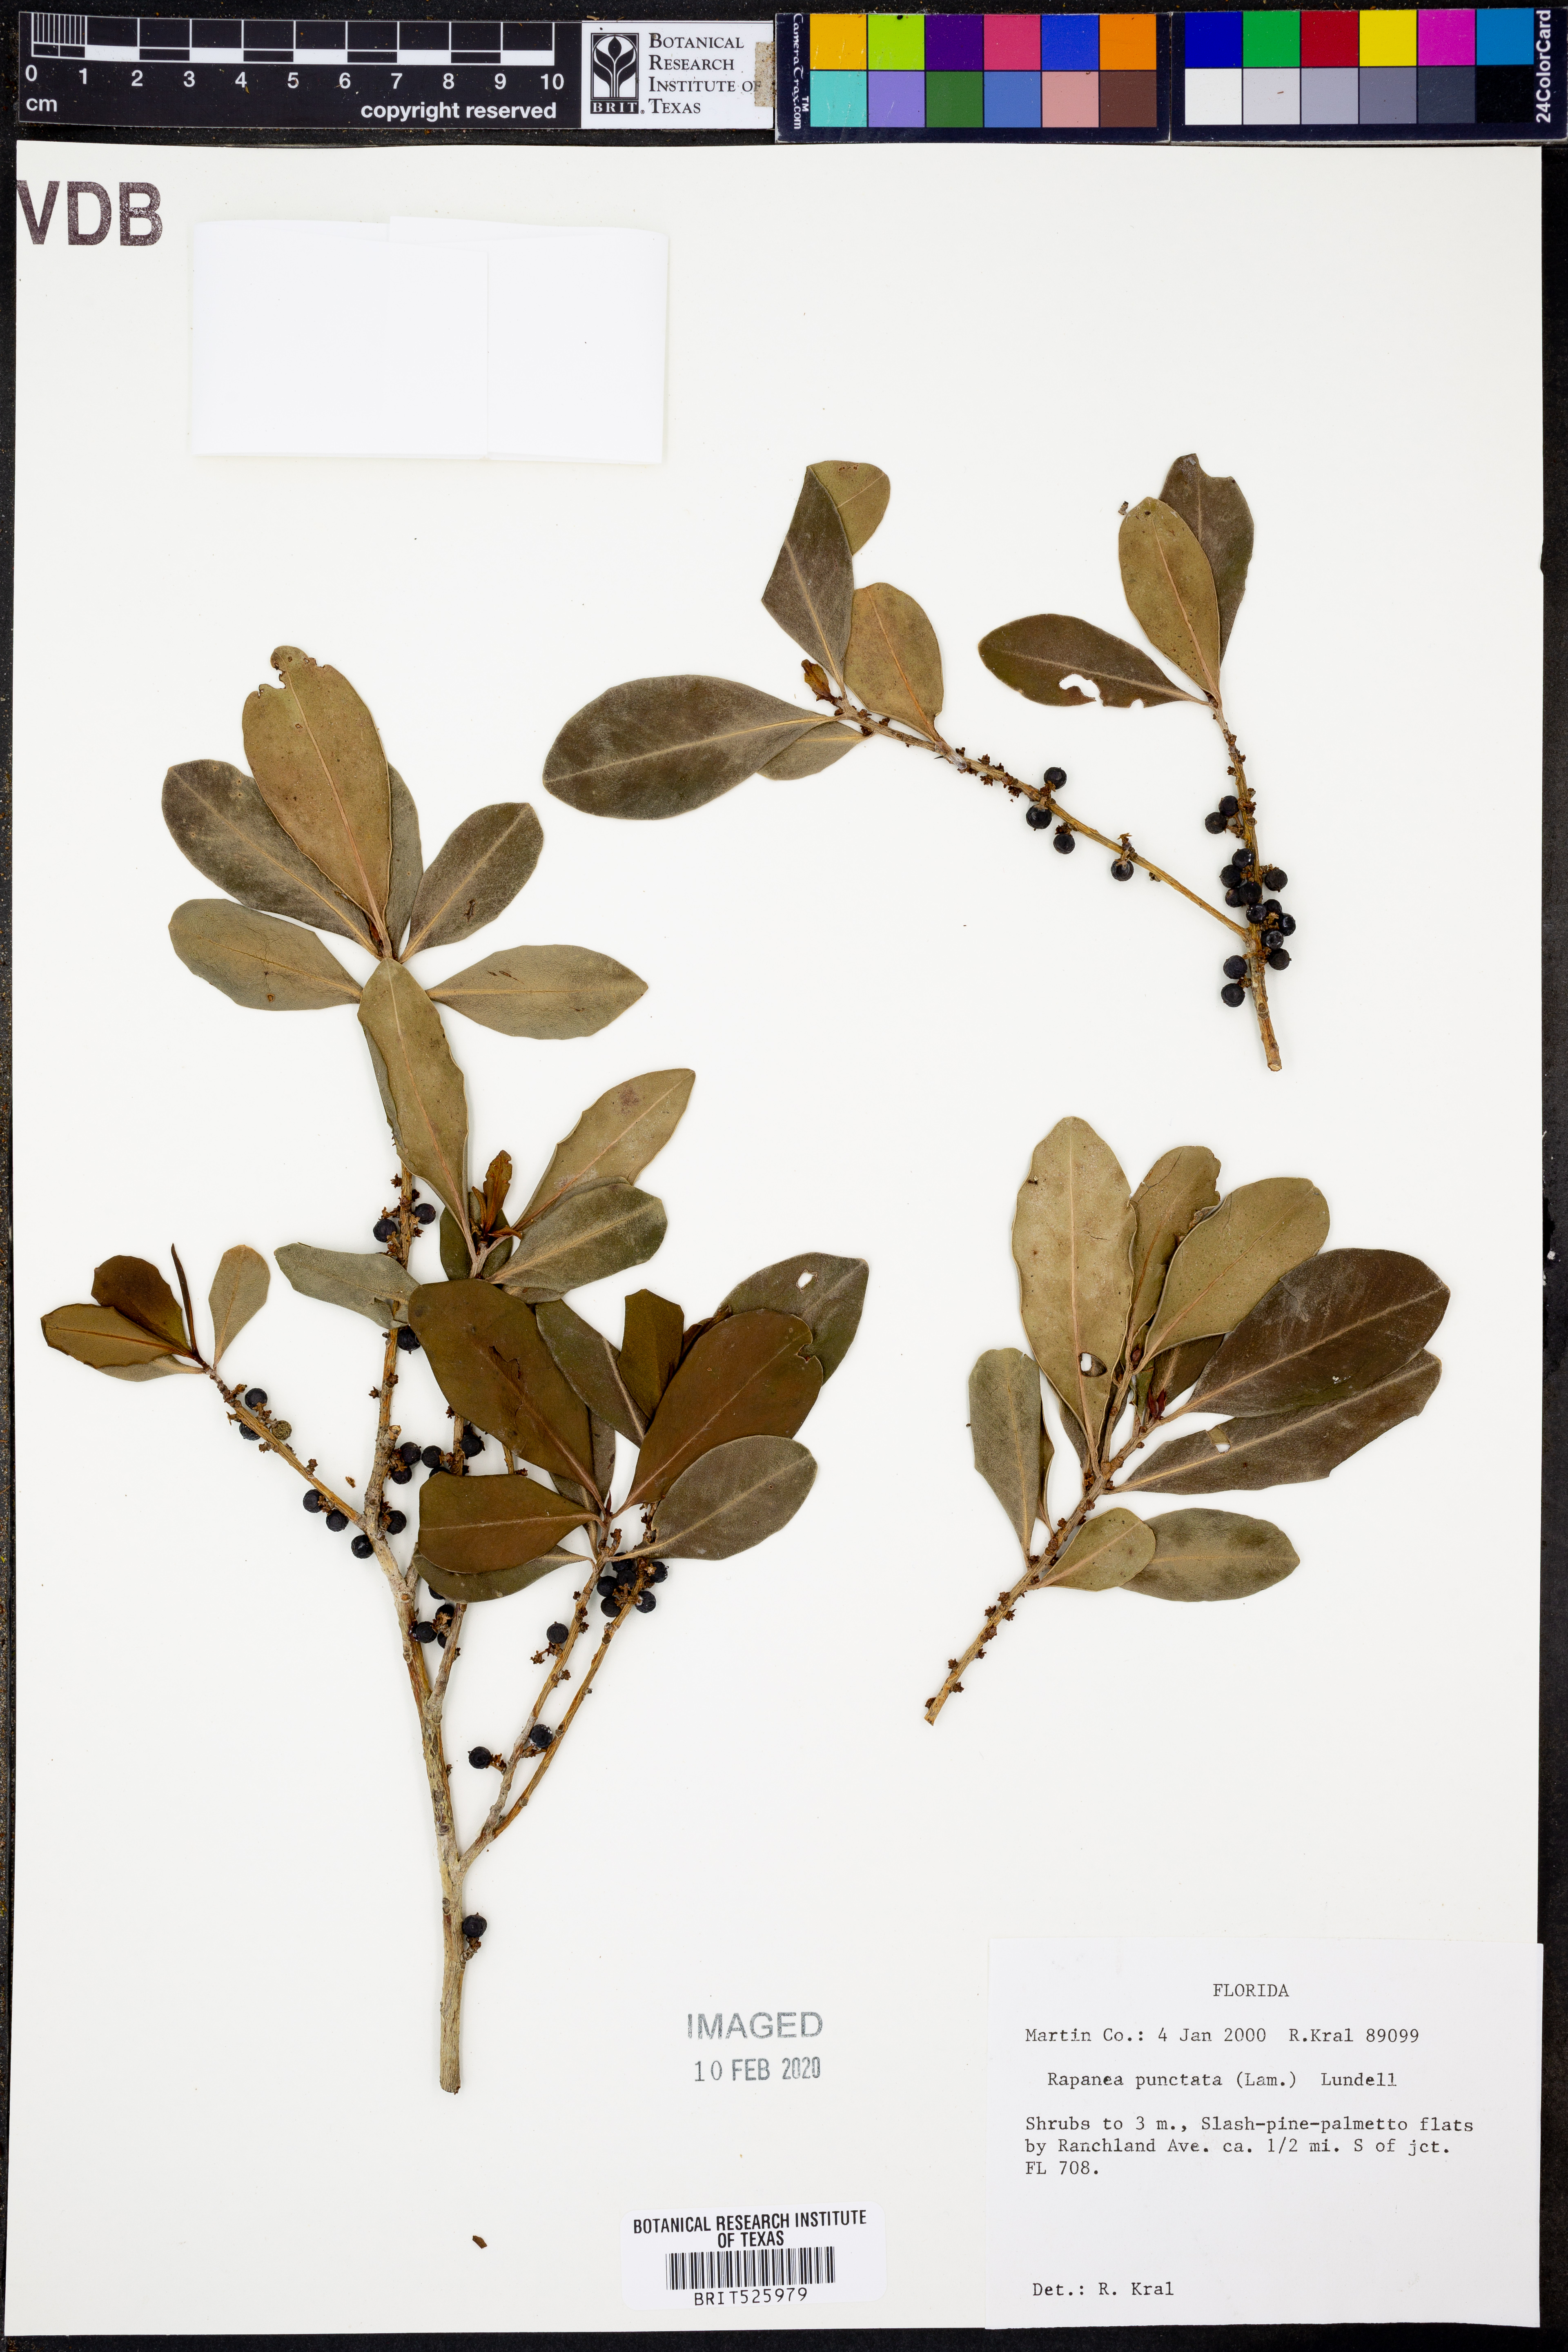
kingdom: Plantae
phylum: Tracheophyta
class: Magnoliopsida
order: Ericales
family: Primulaceae
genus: Myrsine
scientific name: Myrsine floridana
